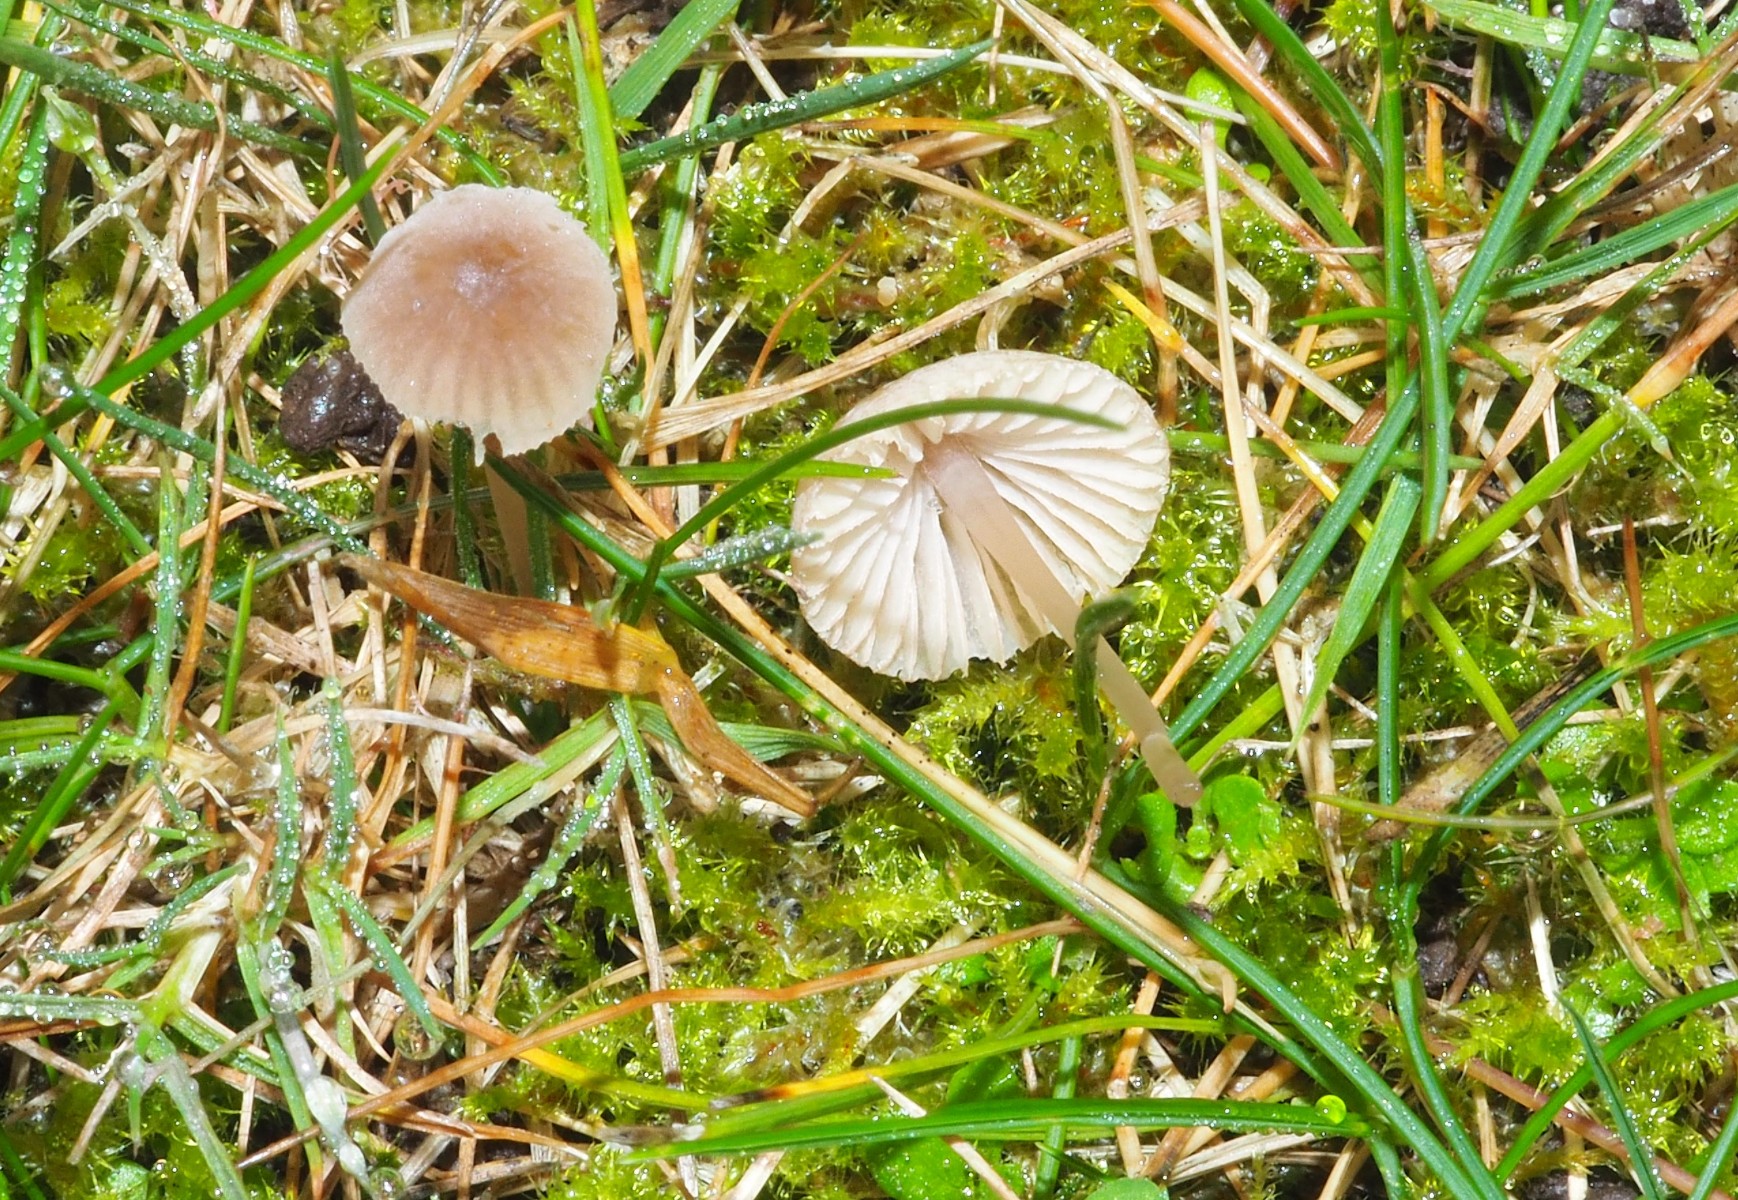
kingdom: Fungi
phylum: Basidiomycota
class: Agaricomycetes
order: Agaricales
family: Mycenaceae
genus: Mycena
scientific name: Mycena
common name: huesvamp
